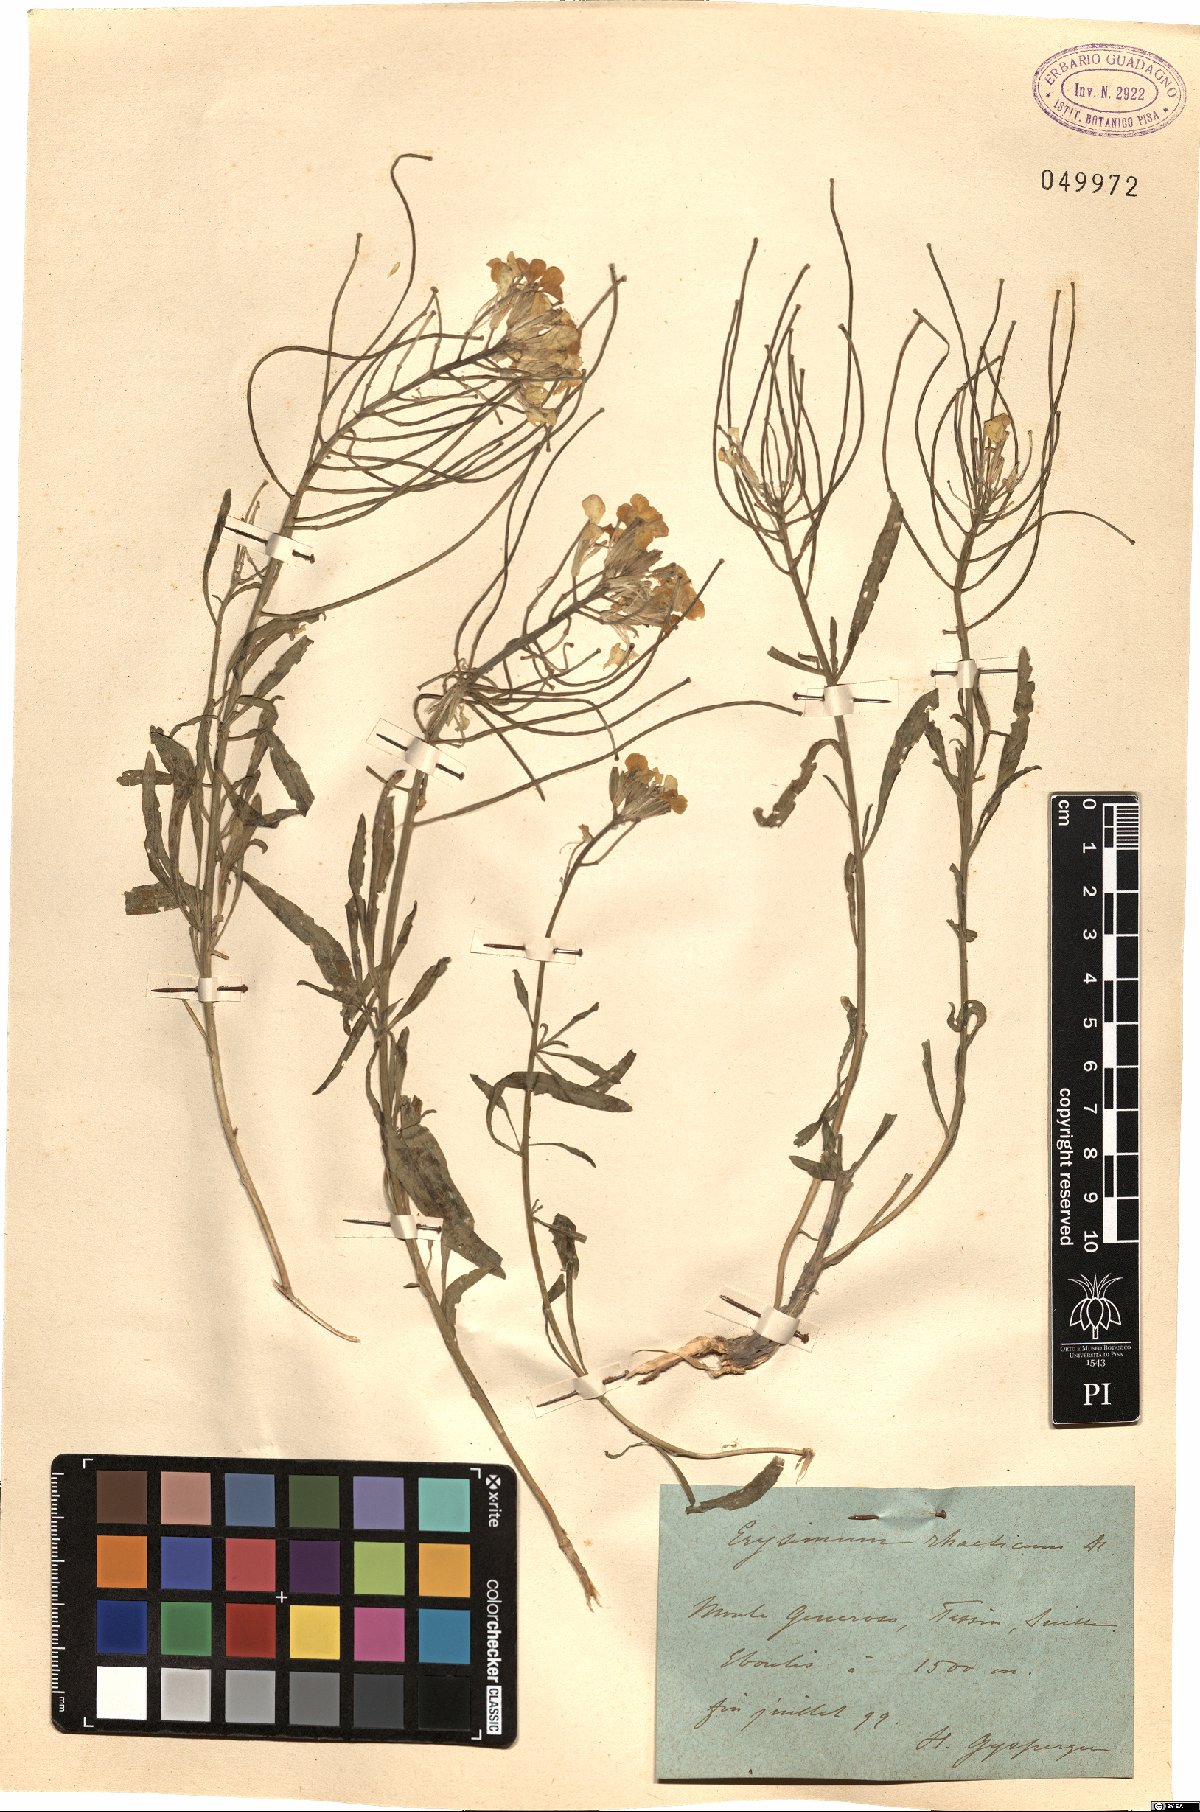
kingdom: Plantae
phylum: Tracheophyta
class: Magnoliopsida
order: Brassicales
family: Brassicaceae
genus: Erysimum
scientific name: Erysimum rhaeticum
